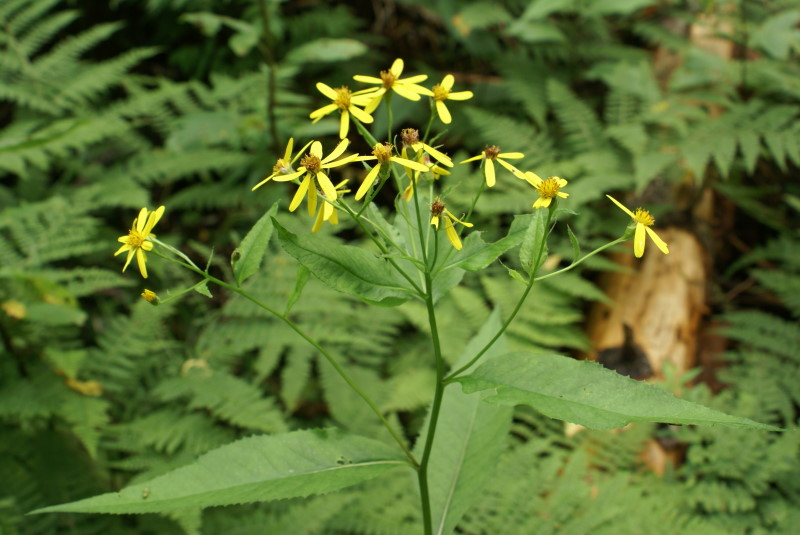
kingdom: Plantae
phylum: Tracheophyta
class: Magnoliopsida
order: Asterales
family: Asteraceae
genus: Senecio
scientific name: Senecio ovatus
